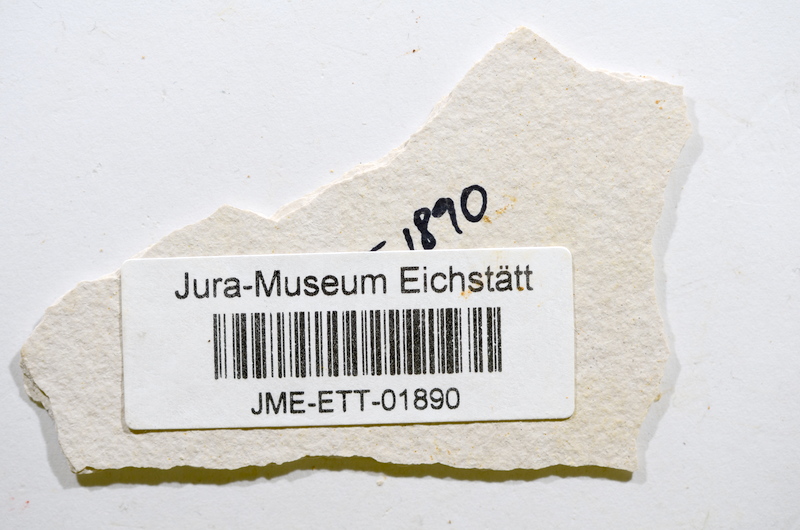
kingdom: Animalia
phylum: Chordata
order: Salmoniformes
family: Orthogonikleithridae
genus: Orthogonikleithrus
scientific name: Orthogonikleithrus hoelli
